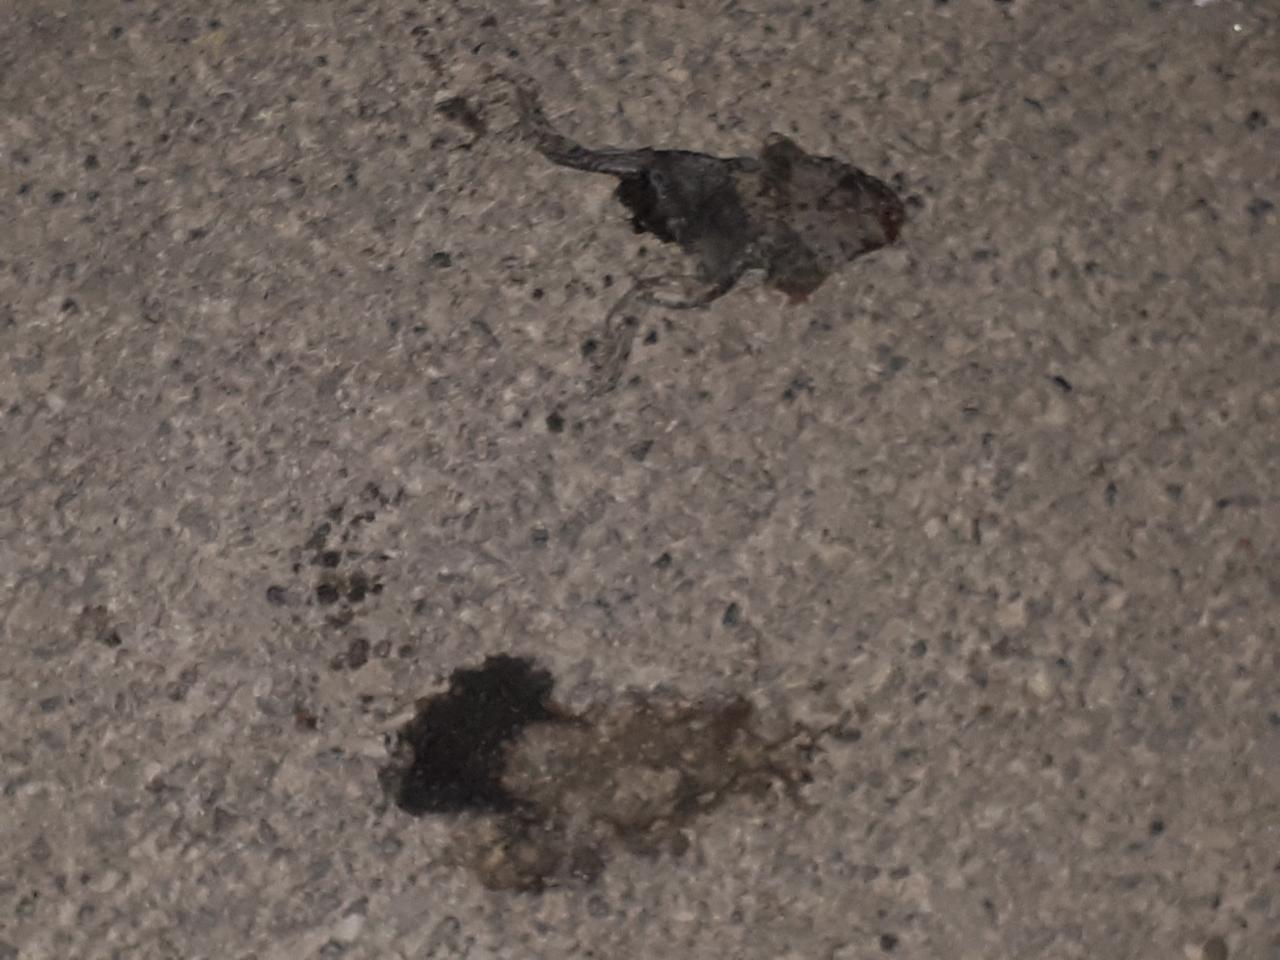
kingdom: Animalia
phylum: Chordata
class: Amphibia
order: Anura
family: Bufonidae
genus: Bufotes
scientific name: Bufotes viridis
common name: European green toad
